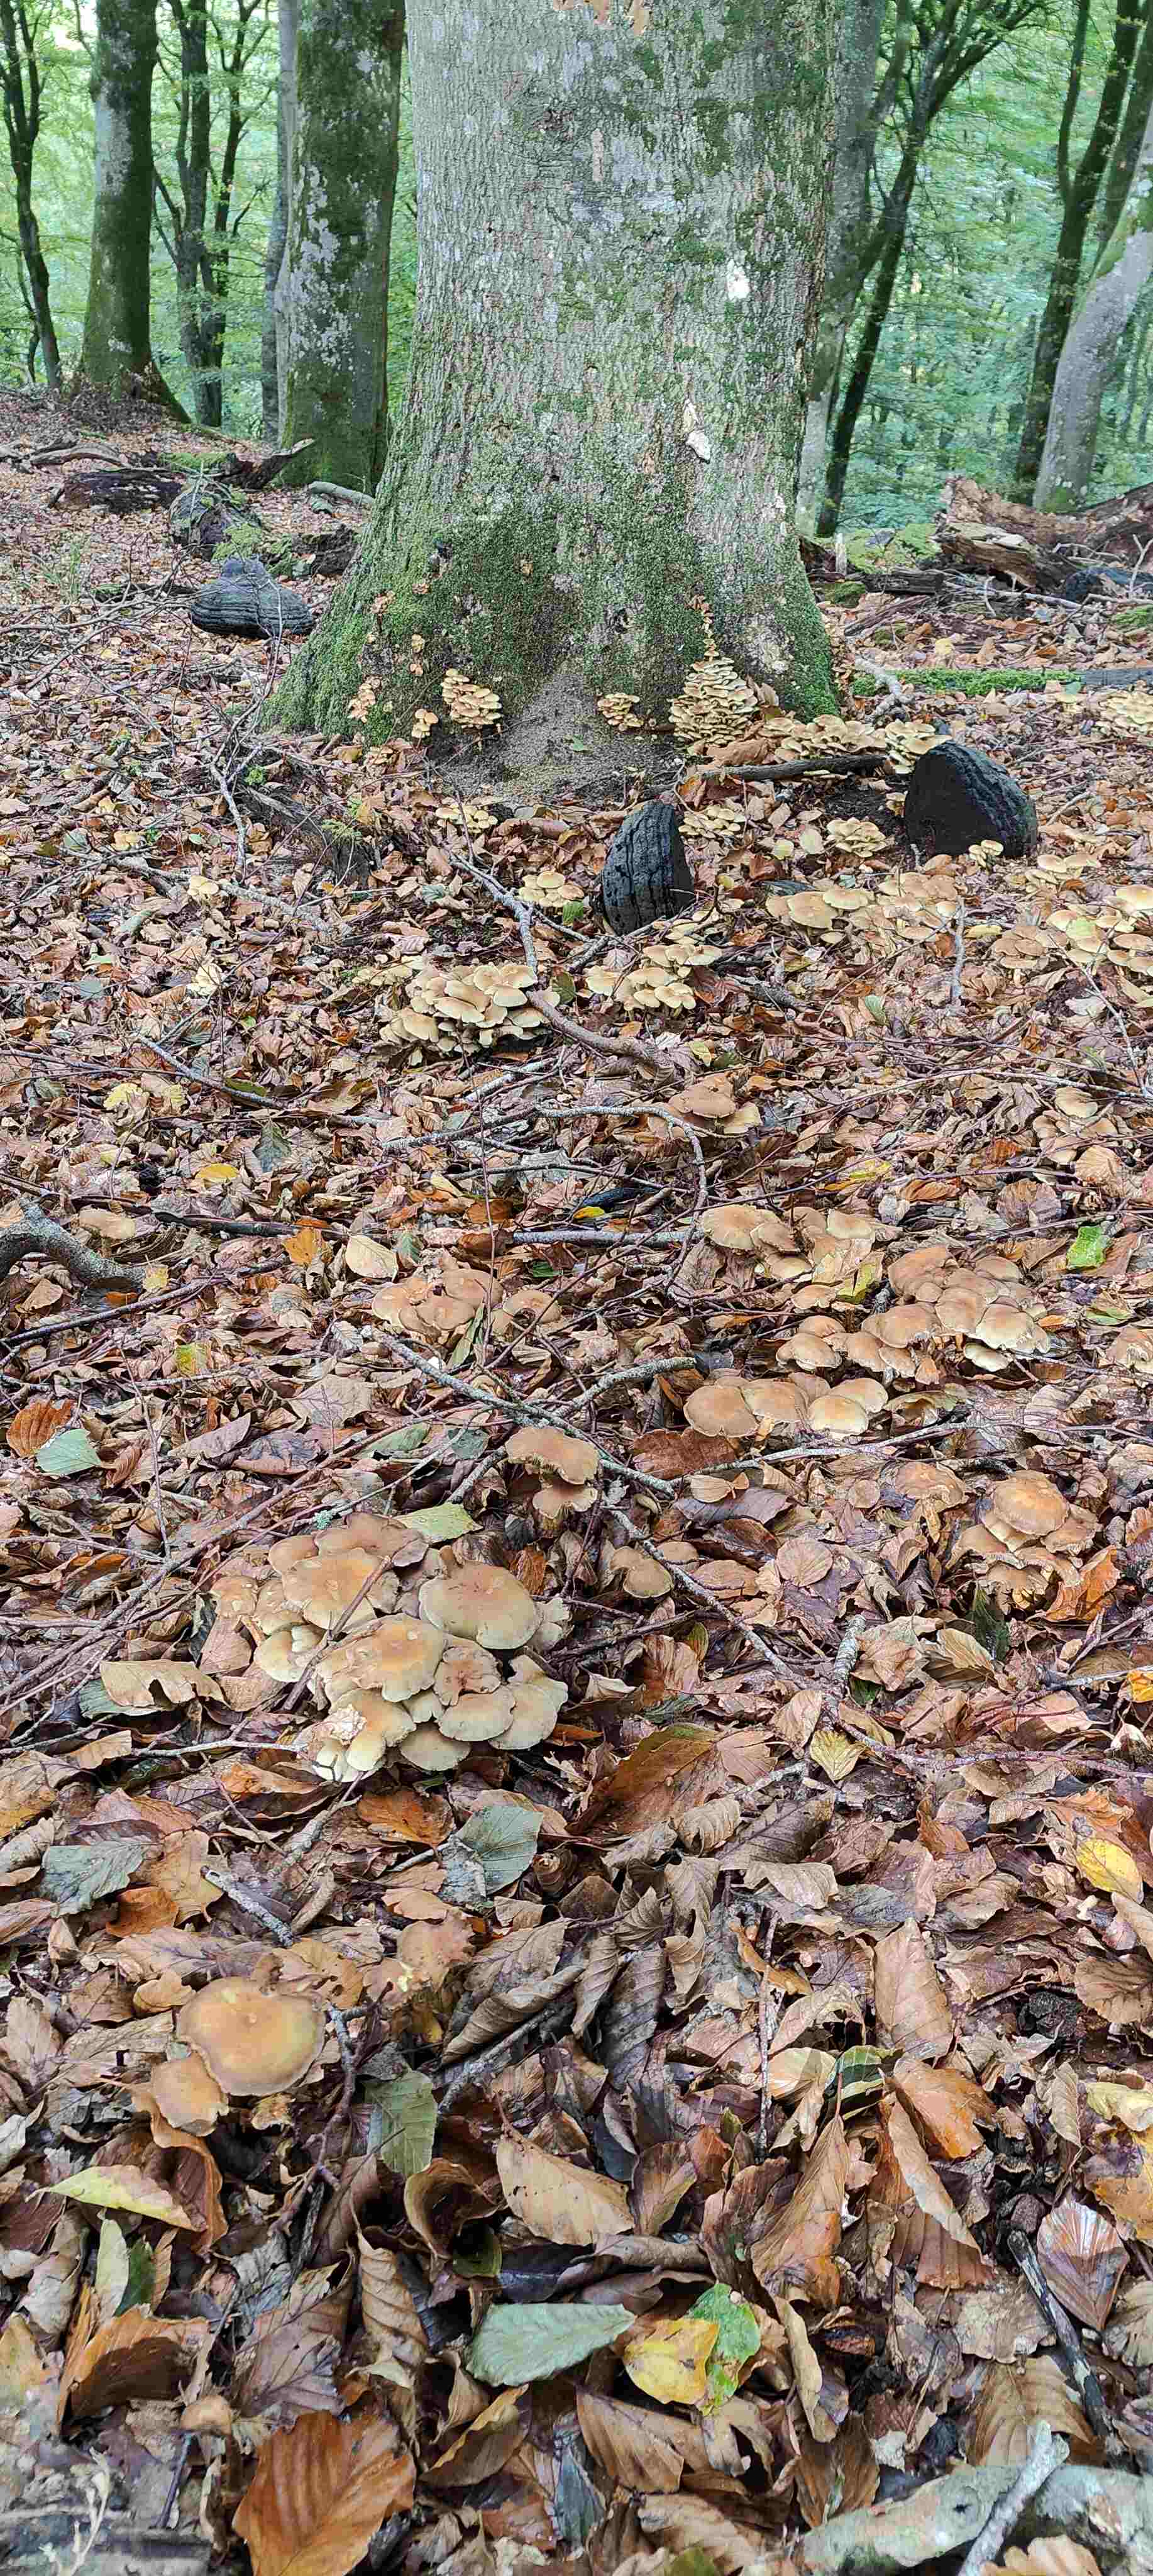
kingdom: Fungi
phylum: Basidiomycota
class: Agaricomycetes
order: Agaricales
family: Strophariaceae
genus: Hypholoma
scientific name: Hypholoma fasciculare
